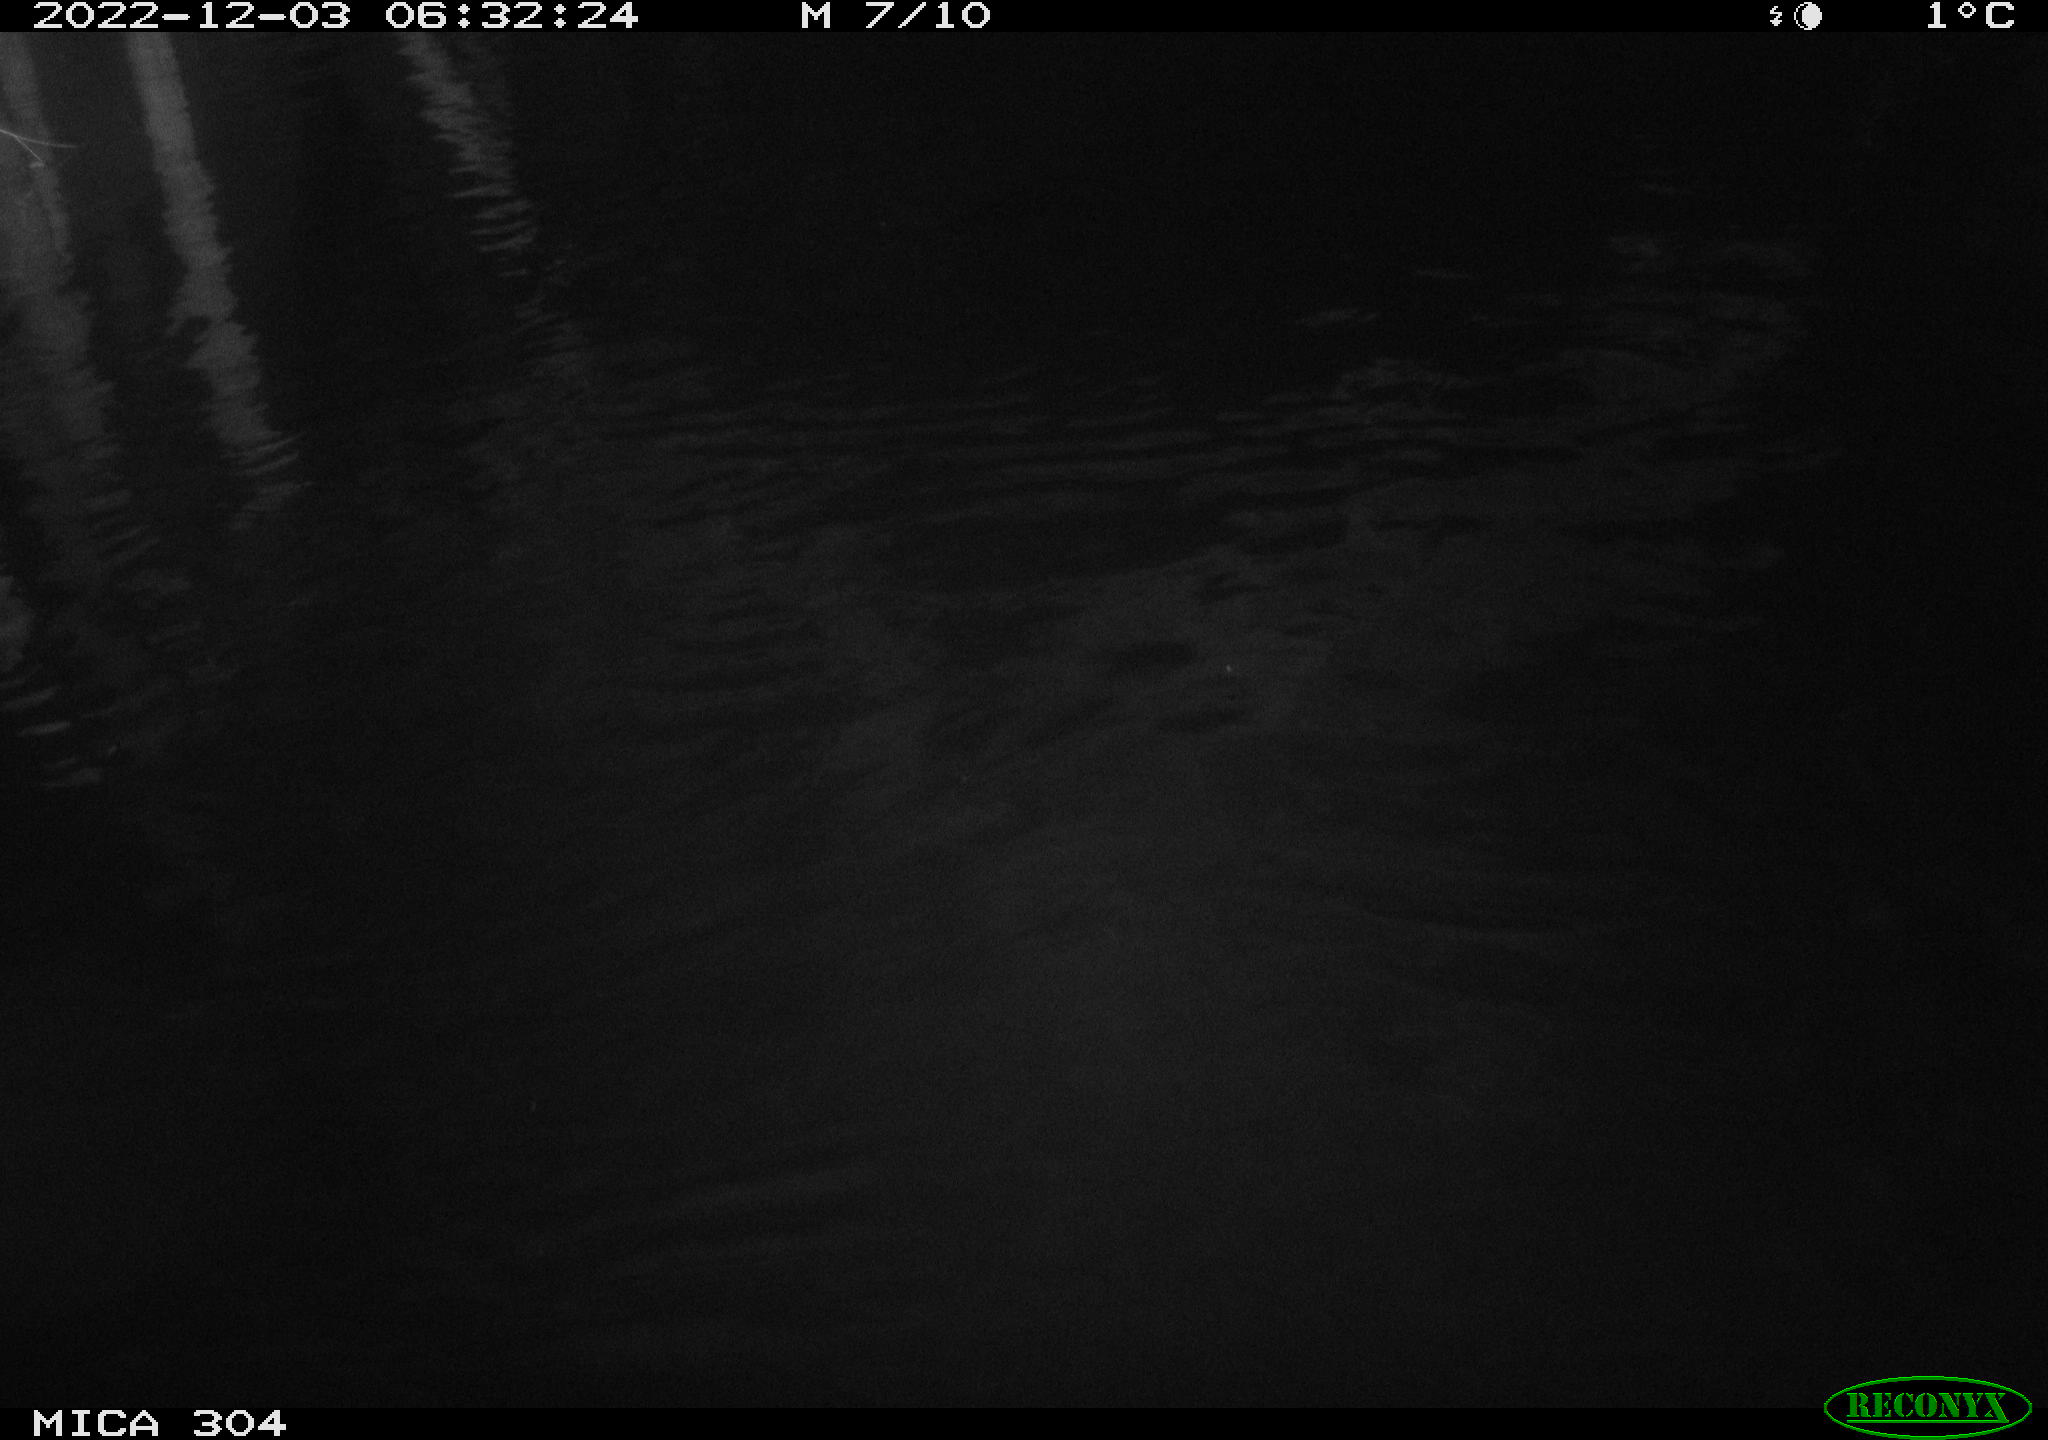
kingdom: Animalia
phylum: Chordata
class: Aves
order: Gruiformes
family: Rallidae
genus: Fulica
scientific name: Fulica atra
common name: Eurasian coot
